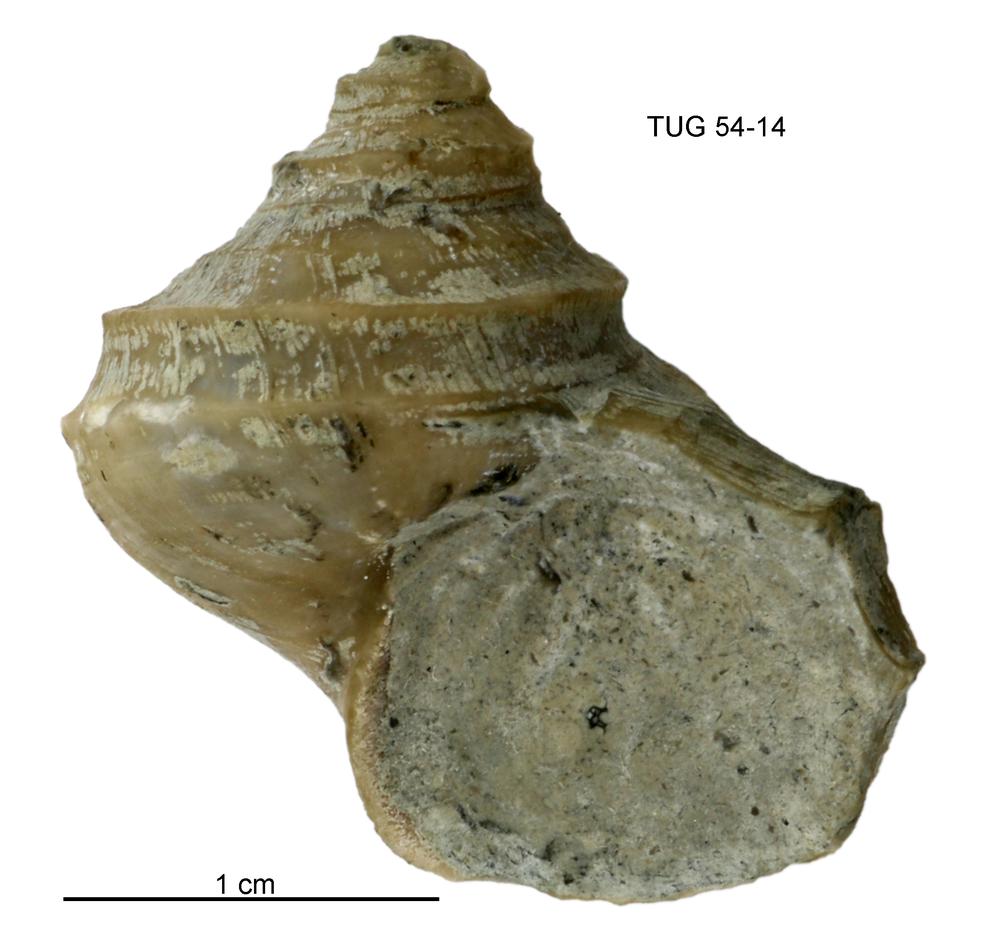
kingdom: Animalia
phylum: Mollusca
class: Gastropoda
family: Trochonematidae
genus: Trochonema
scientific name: Trochonema
